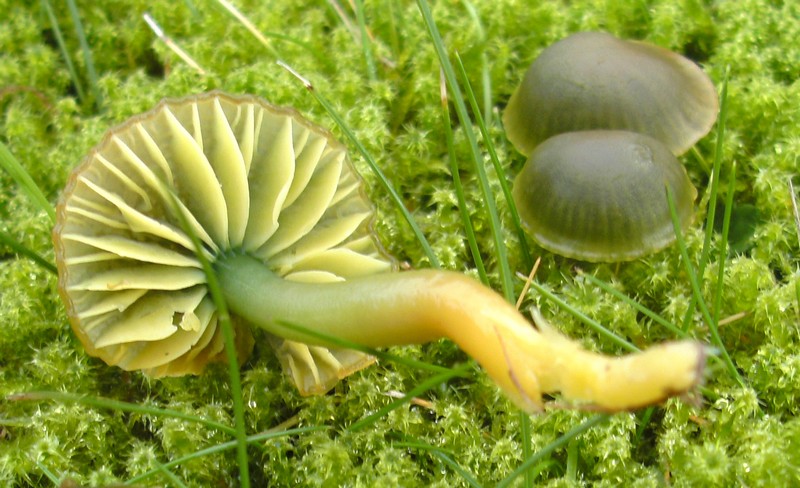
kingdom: Fungi
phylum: Basidiomycota
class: Agaricomycetes
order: Agaricales
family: Hygrophoraceae
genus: Gliophorus
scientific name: Gliophorus psittacinus
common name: papegøje-vokshat
